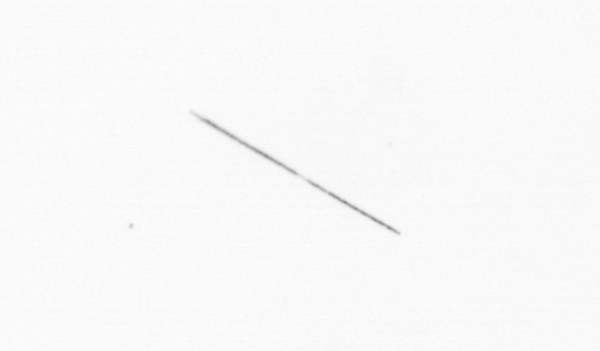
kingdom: Chromista
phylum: Ochrophyta
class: Bacillariophyceae
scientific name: Bacillariophyceae
